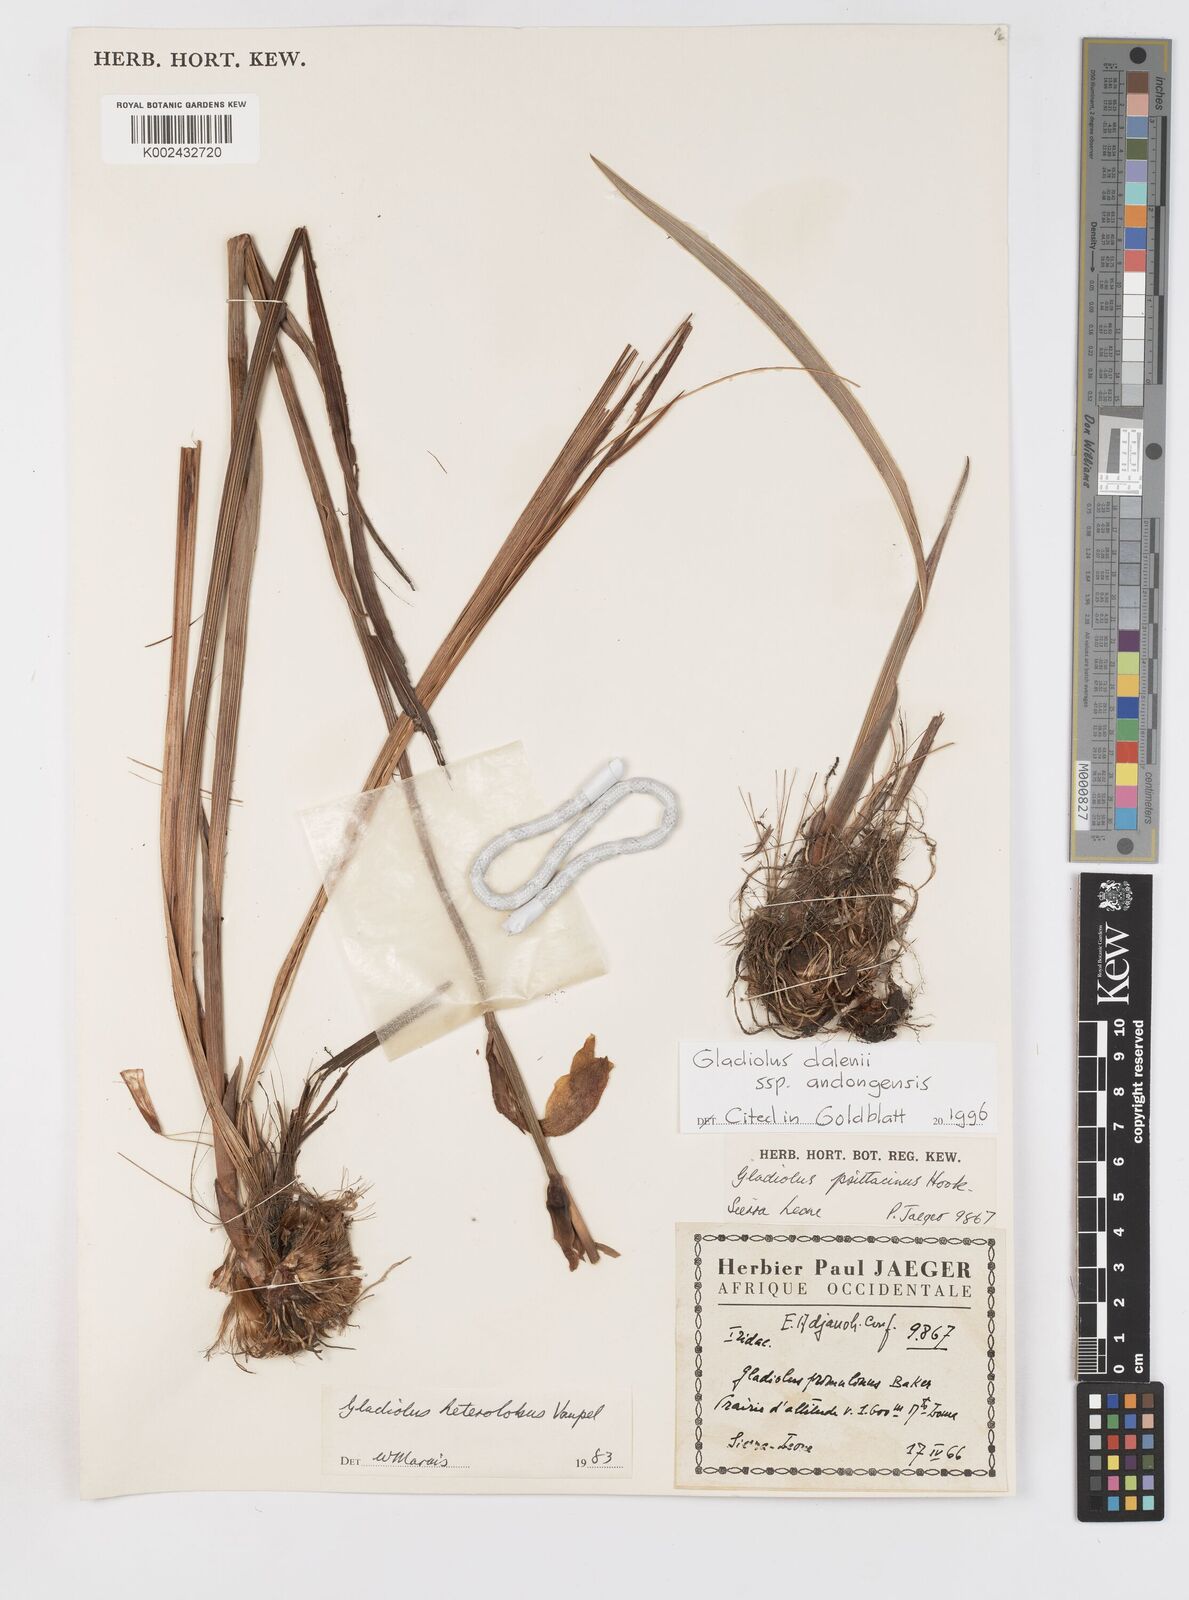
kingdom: Plantae
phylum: Tracheophyta
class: Liliopsida
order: Asparagales
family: Iridaceae
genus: Gladiolus
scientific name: Gladiolus dalenii
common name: Cornflag
